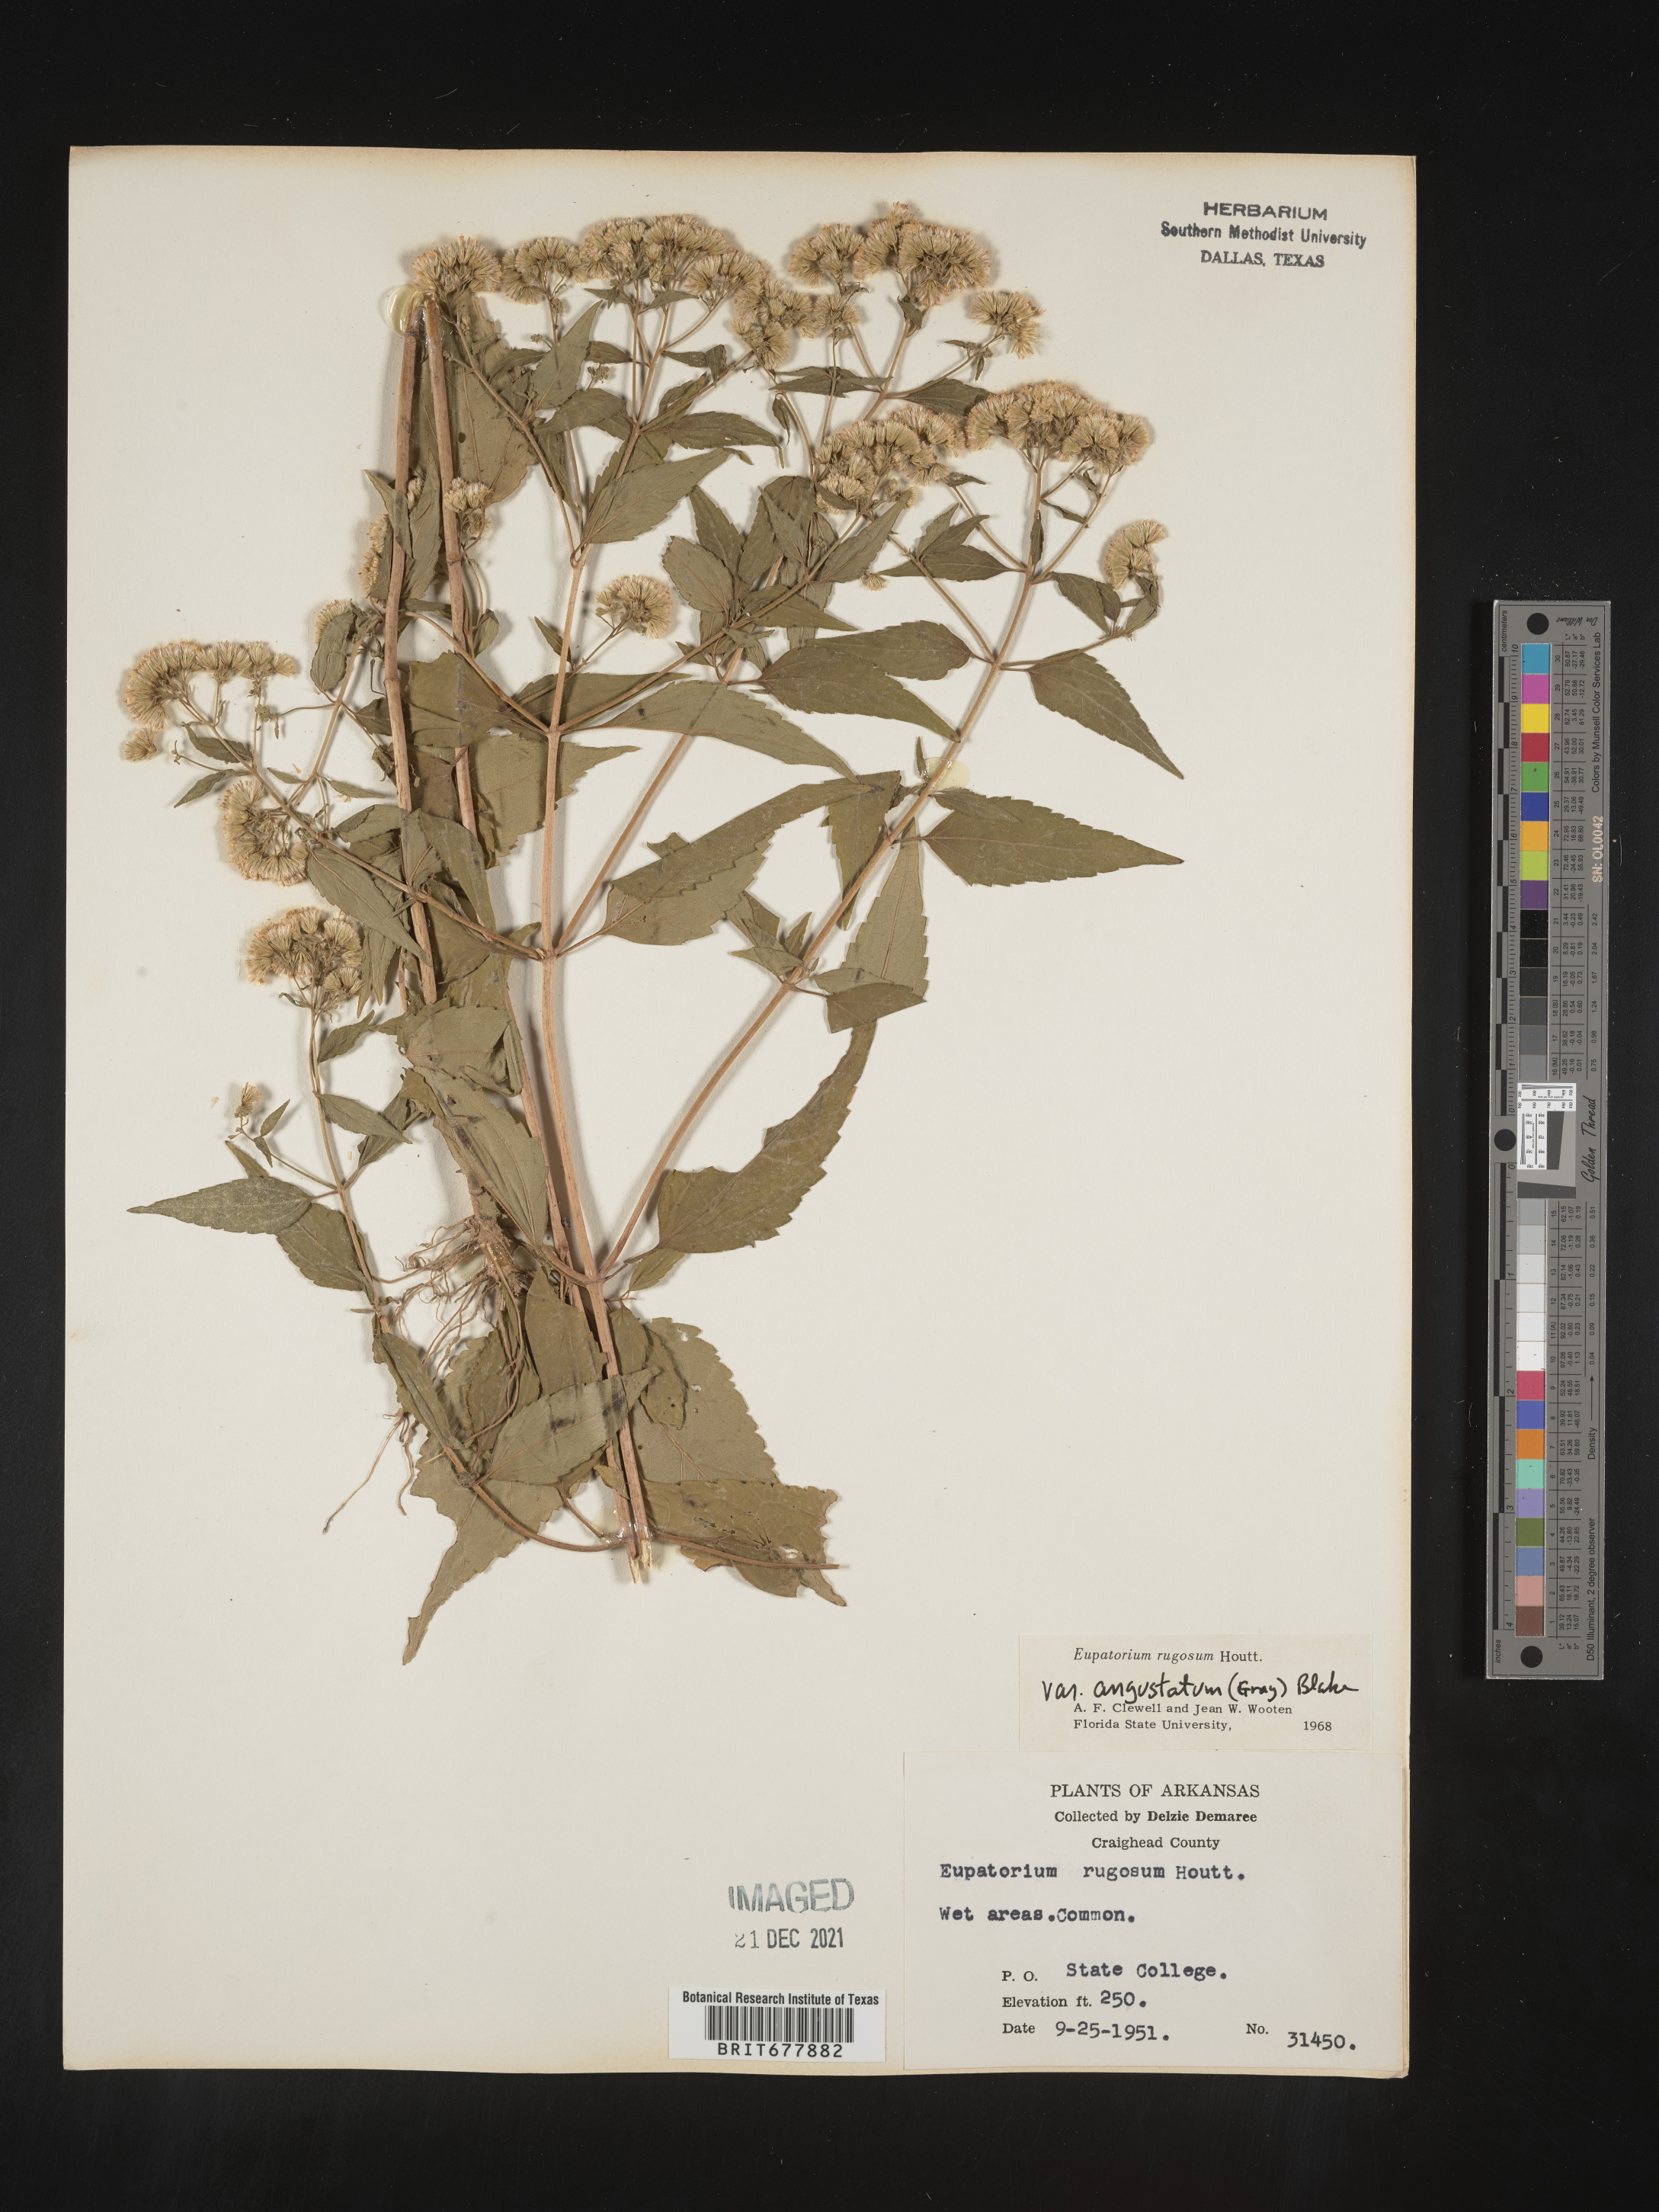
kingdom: Plantae
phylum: Tracheophyta
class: Magnoliopsida
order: Asterales
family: Asteraceae
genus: Ageratina
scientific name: Ageratina altissima
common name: White snakeroot
